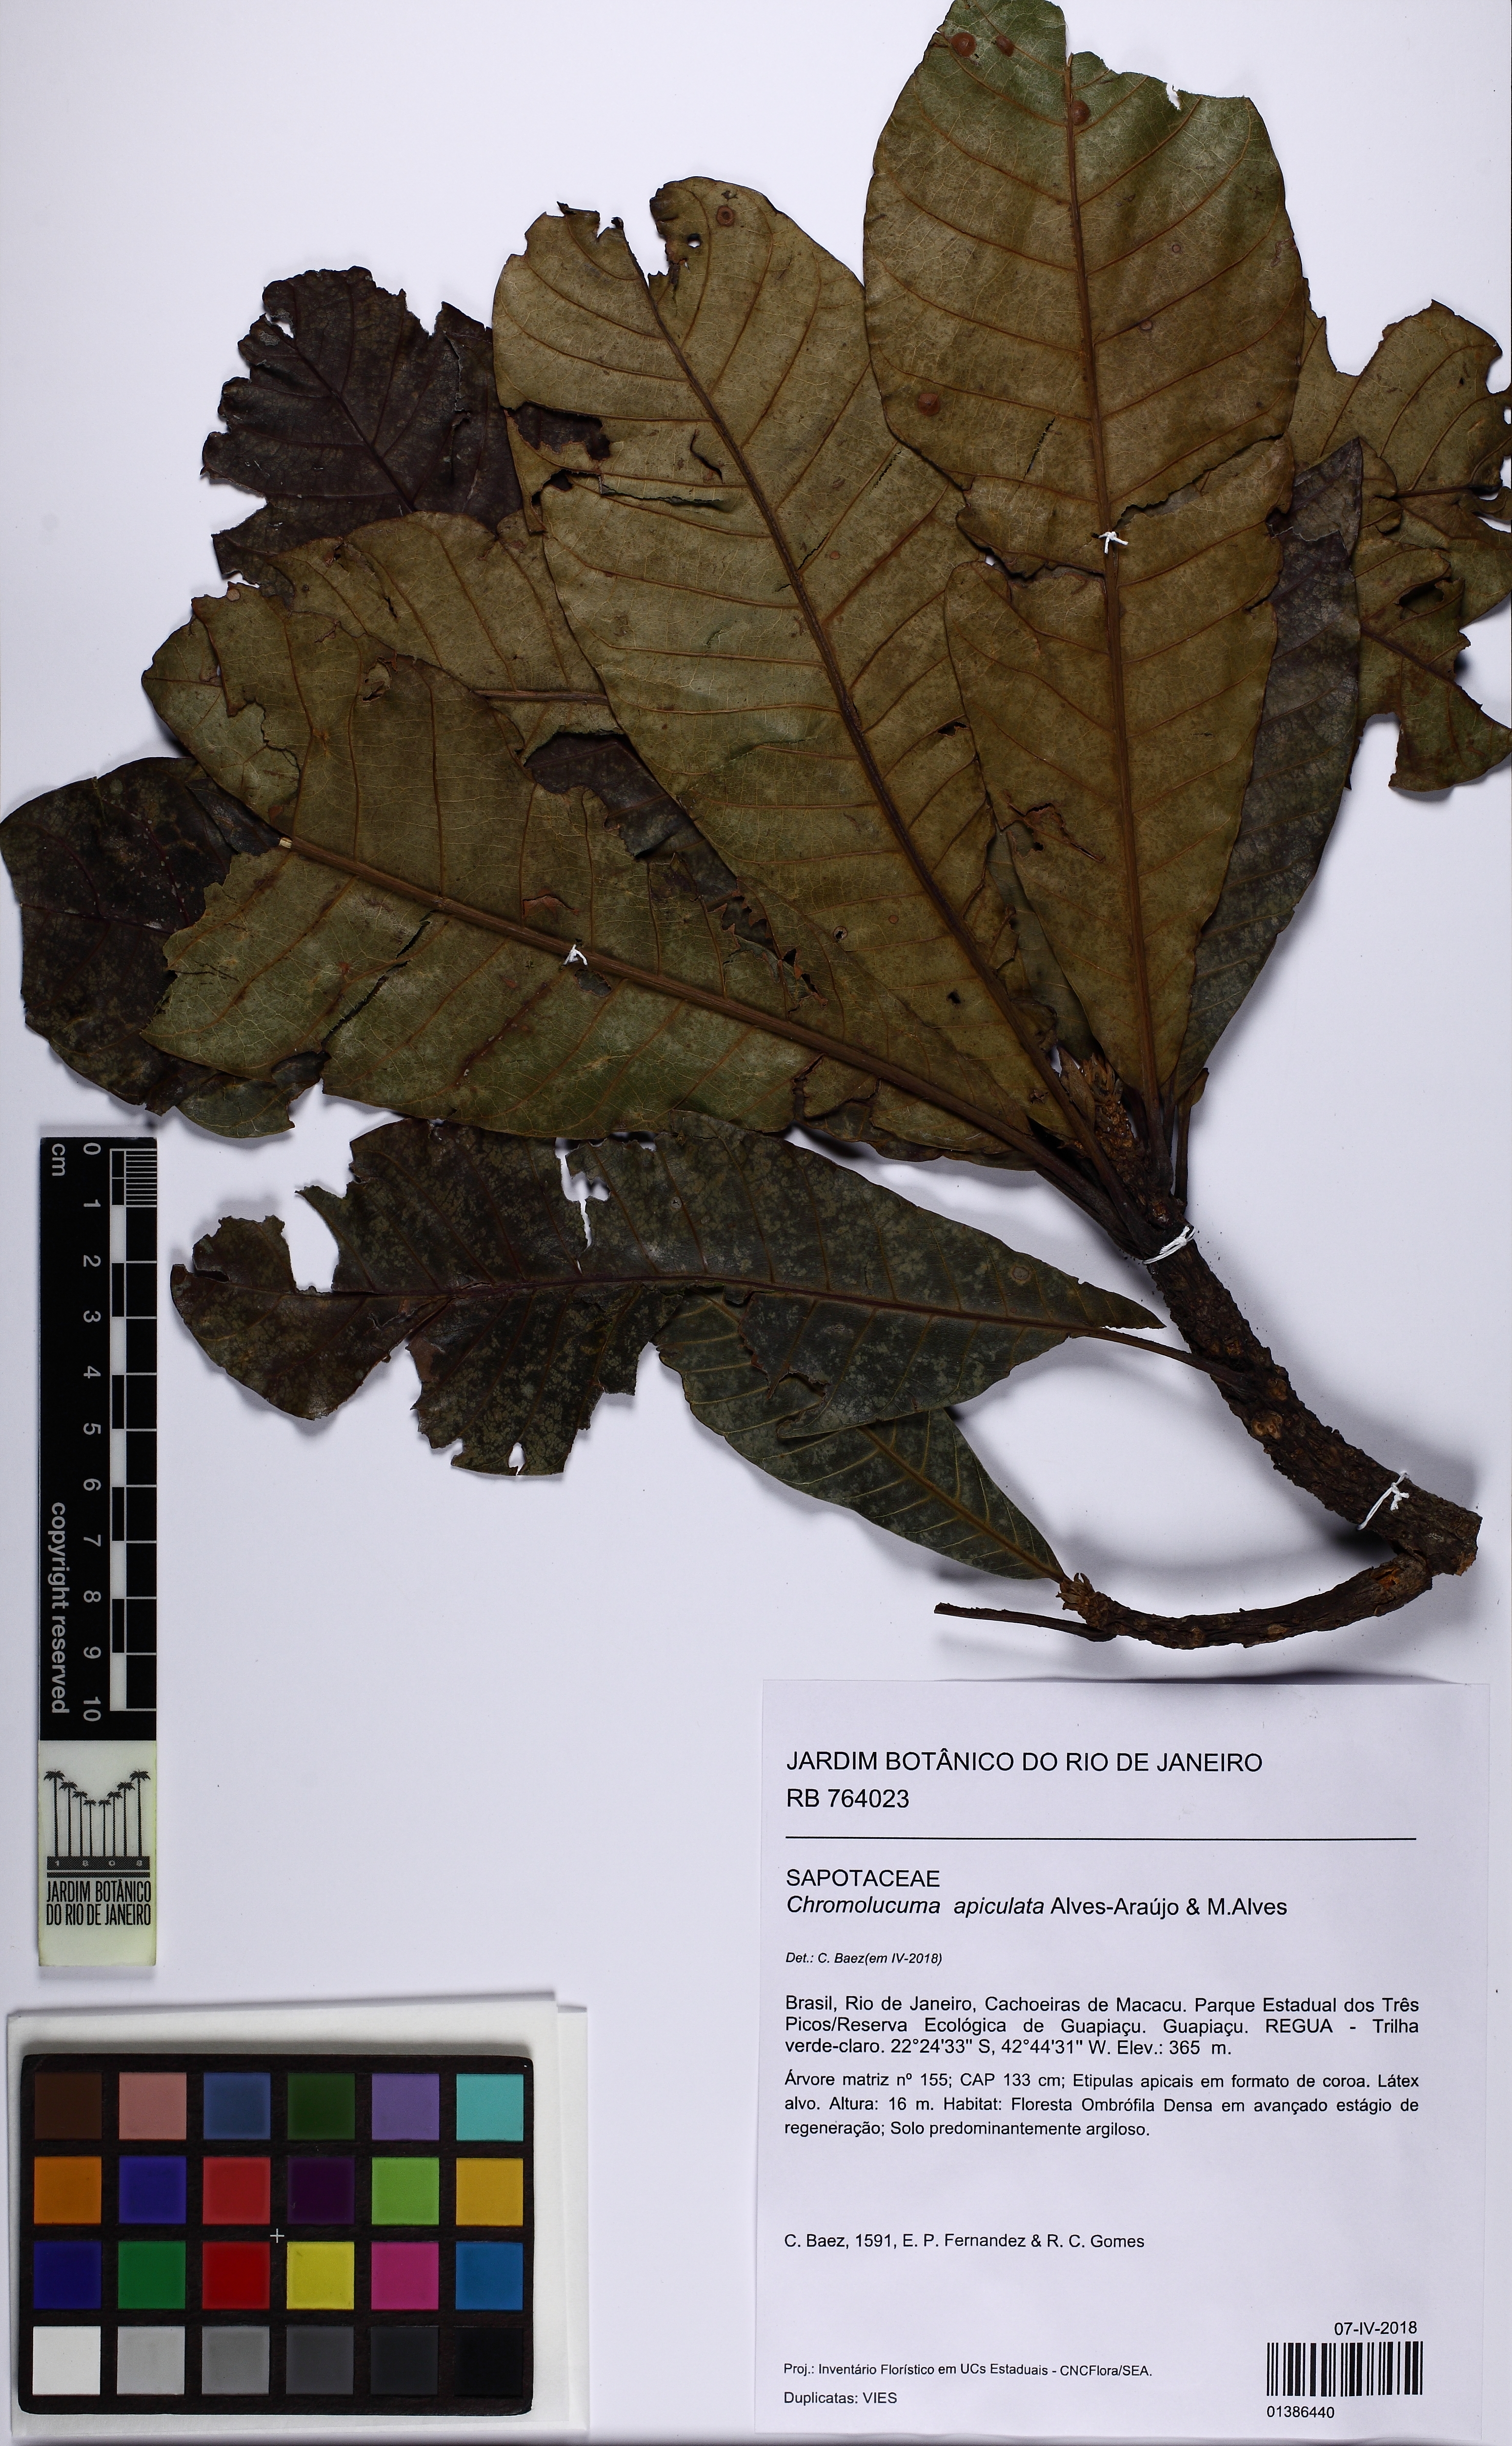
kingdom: Plantae
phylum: Tracheophyta
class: Magnoliopsida
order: Ericales
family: Sapotaceae
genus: Chromolucuma
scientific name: Chromolucuma apiculata
